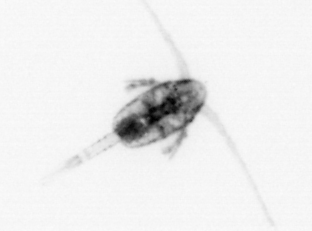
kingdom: Animalia
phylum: Arthropoda
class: Copepoda
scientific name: Copepoda
